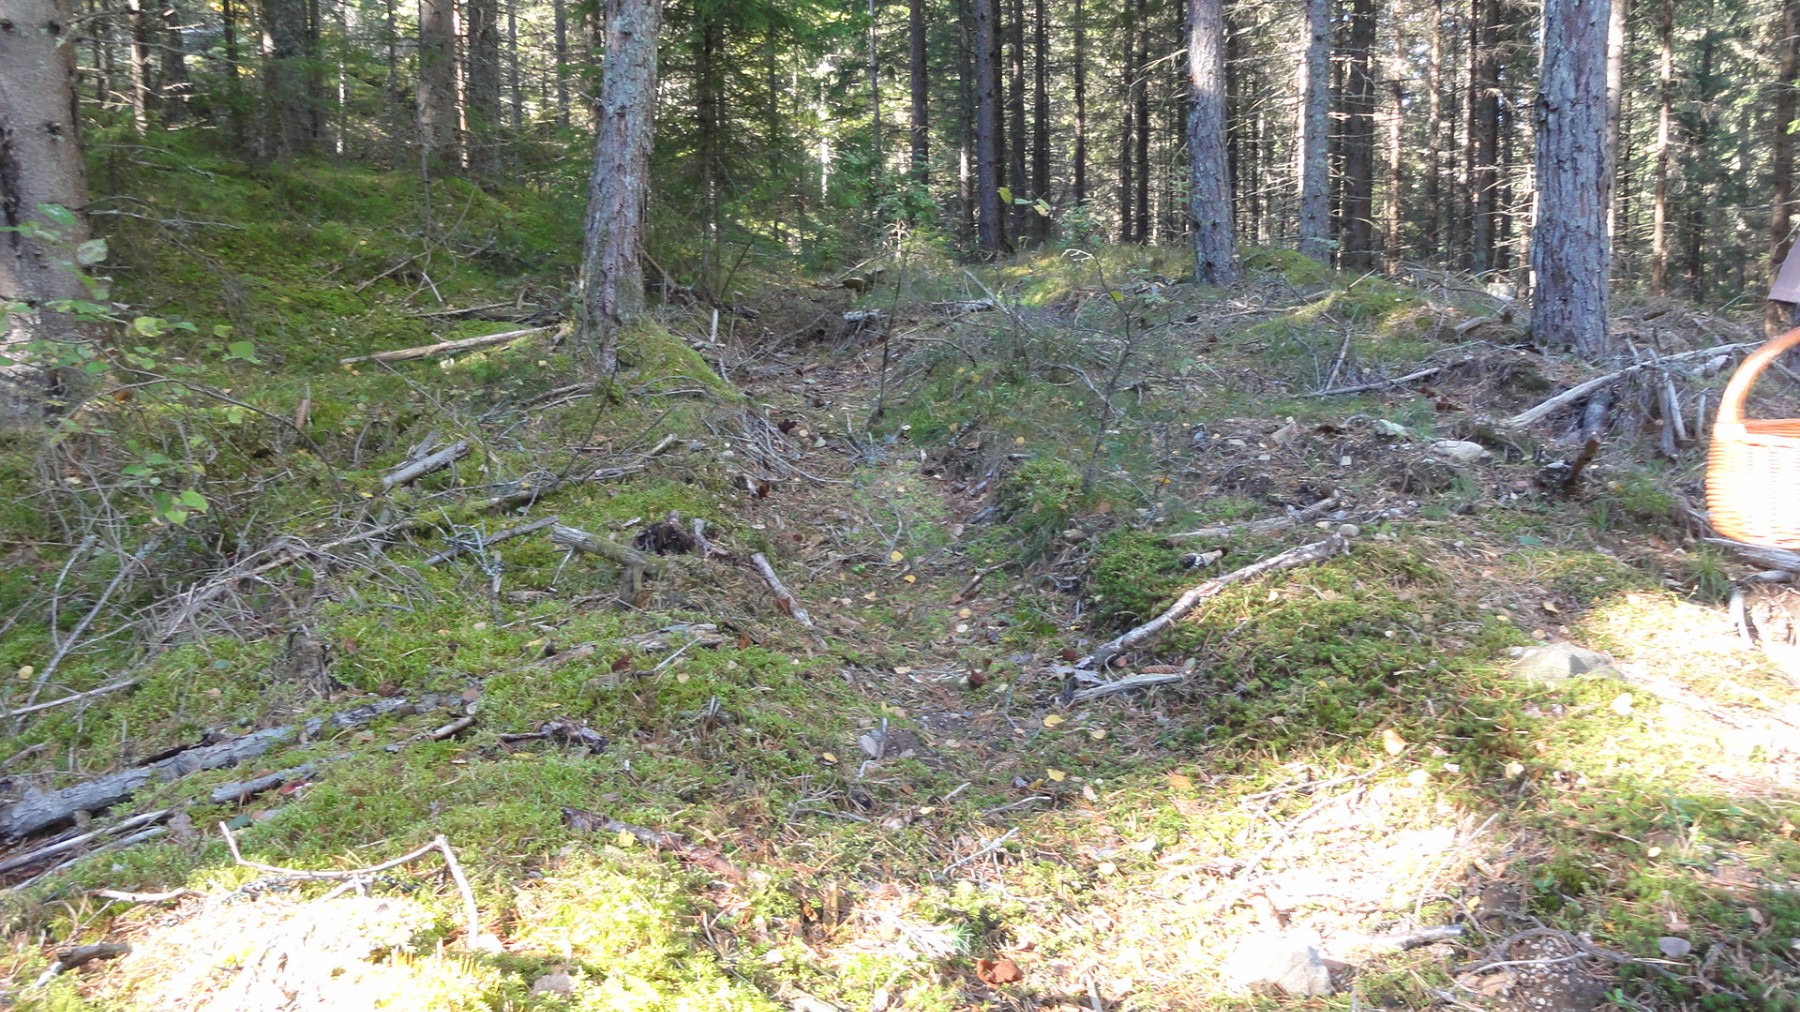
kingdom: Fungi
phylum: Ascomycota
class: Pezizomycetes
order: Pezizales
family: Discinaceae
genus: Gyromitra
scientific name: Gyromitra infula
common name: bispehue-stenmorkel
